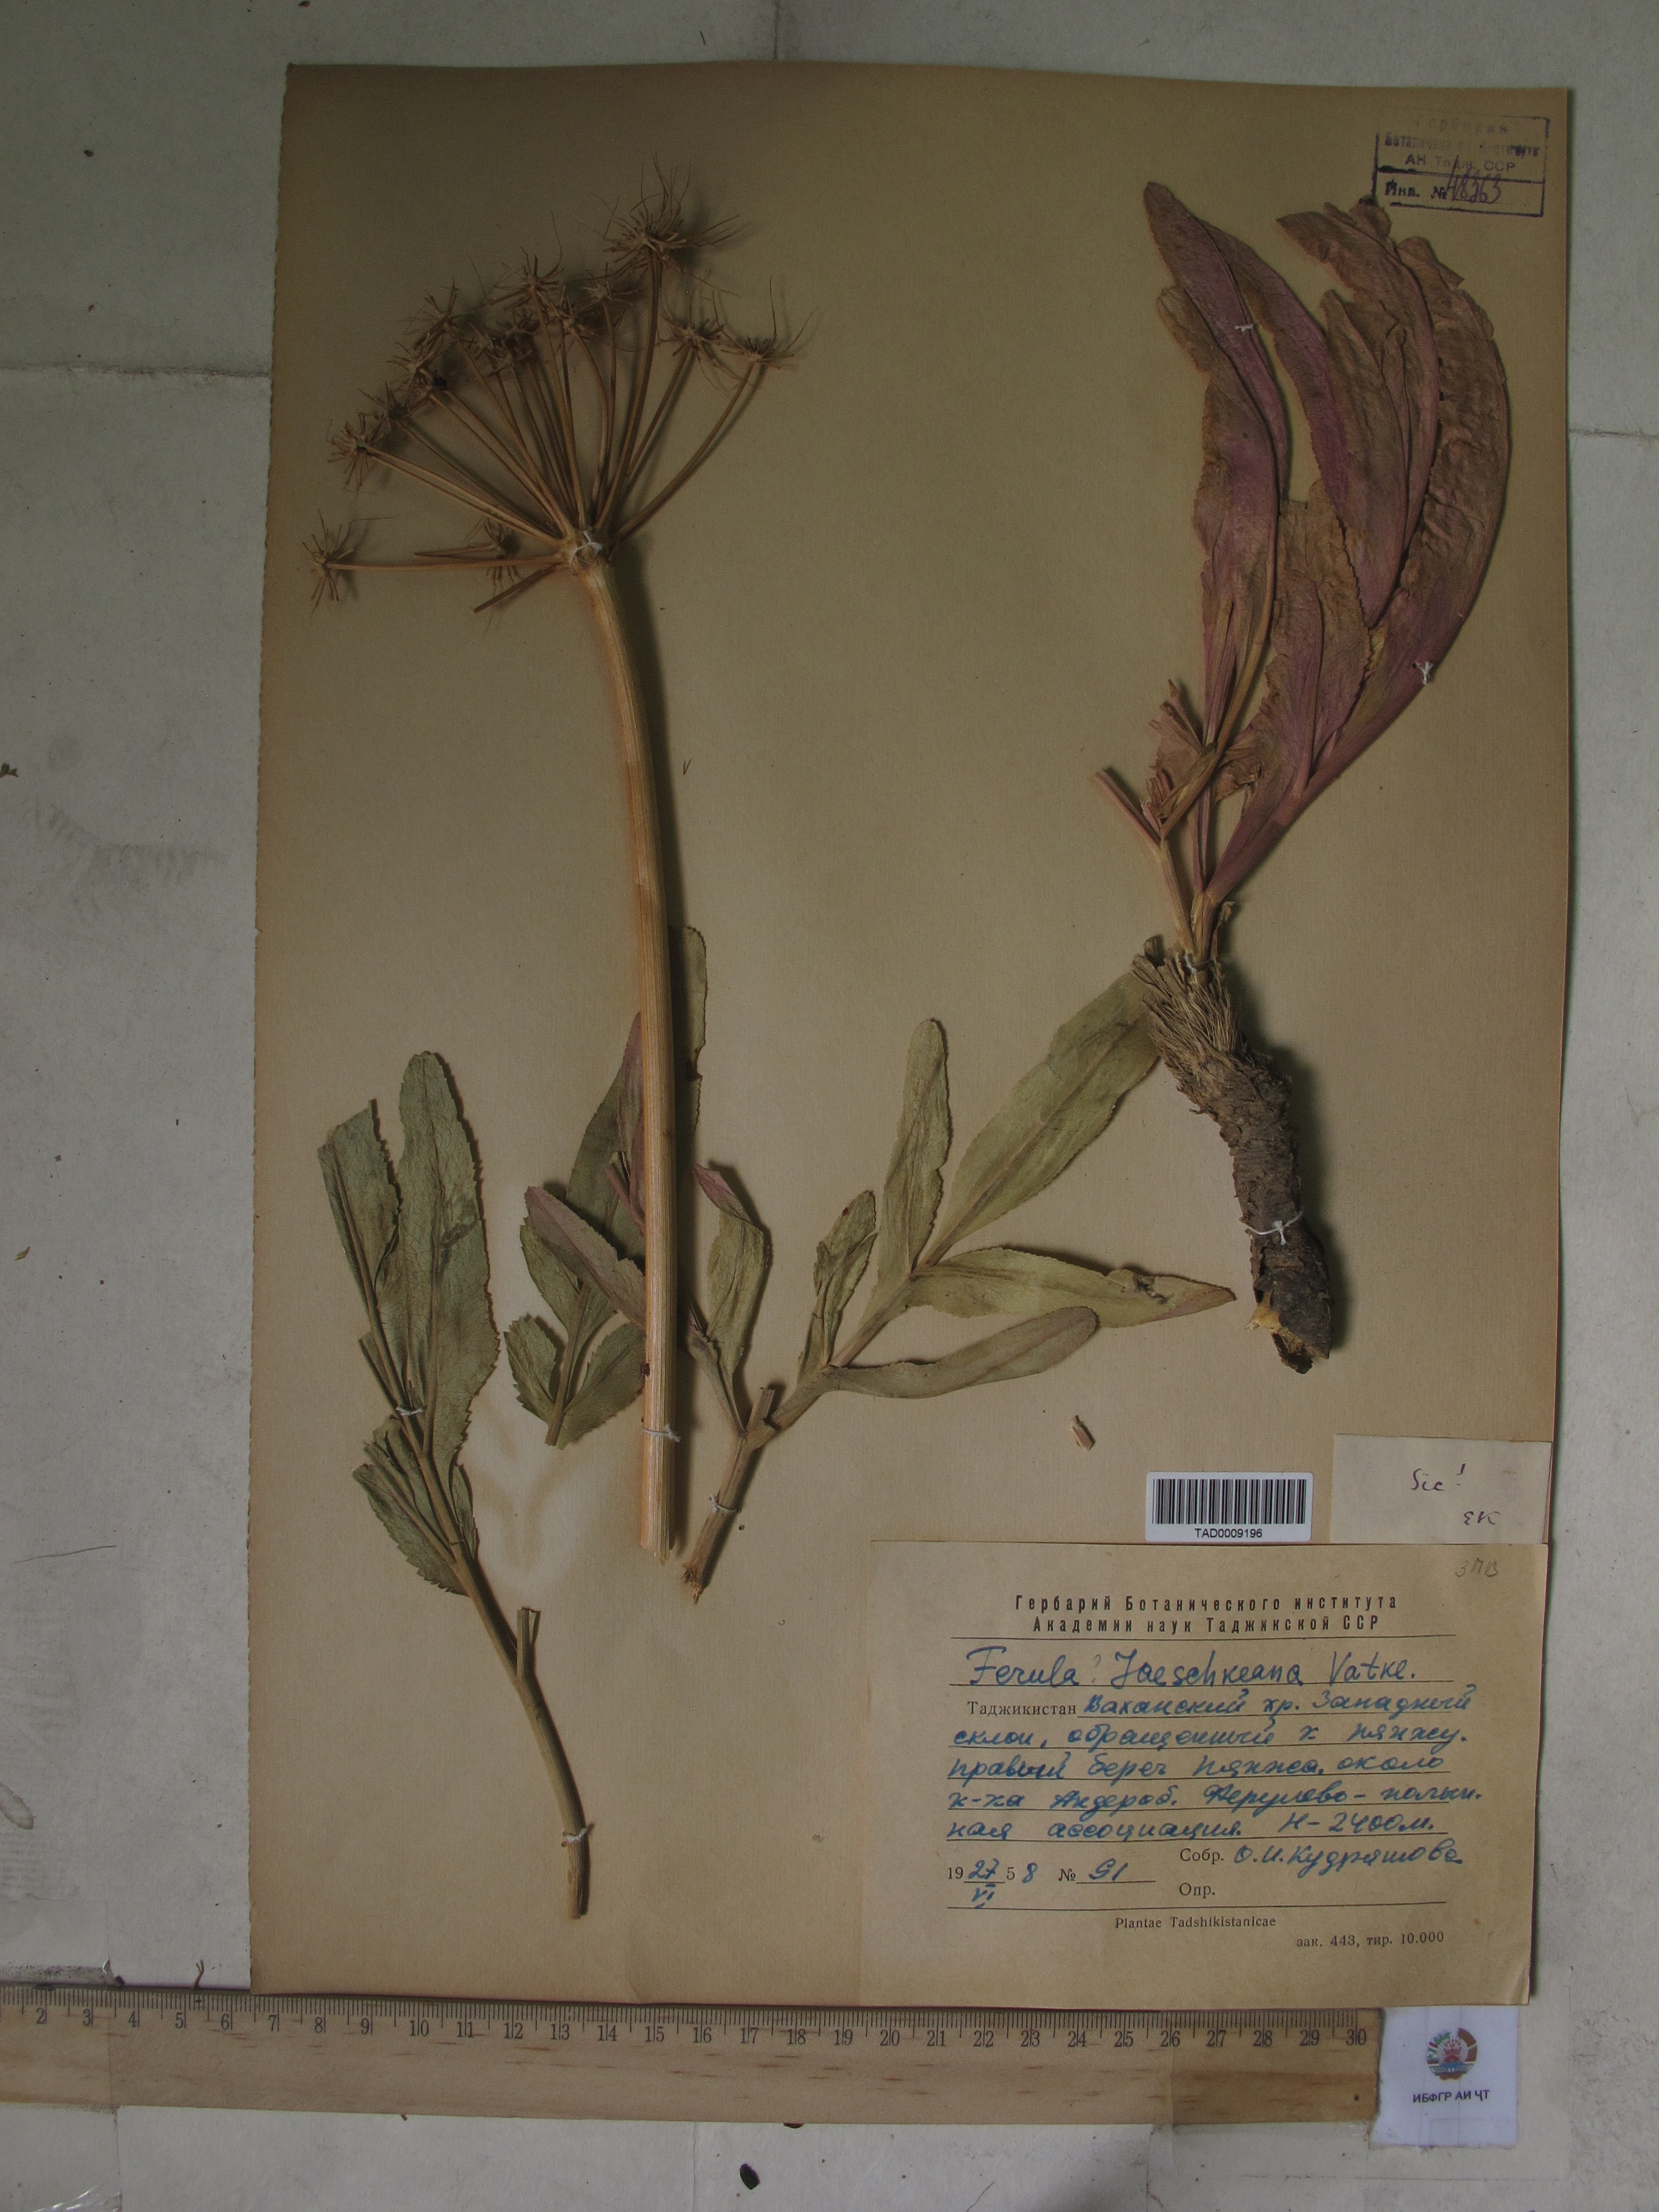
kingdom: Plantae
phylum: Tracheophyta
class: Magnoliopsida
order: Apiales
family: Apiaceae
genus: Ferula
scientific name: Ferula jaeschkeana
